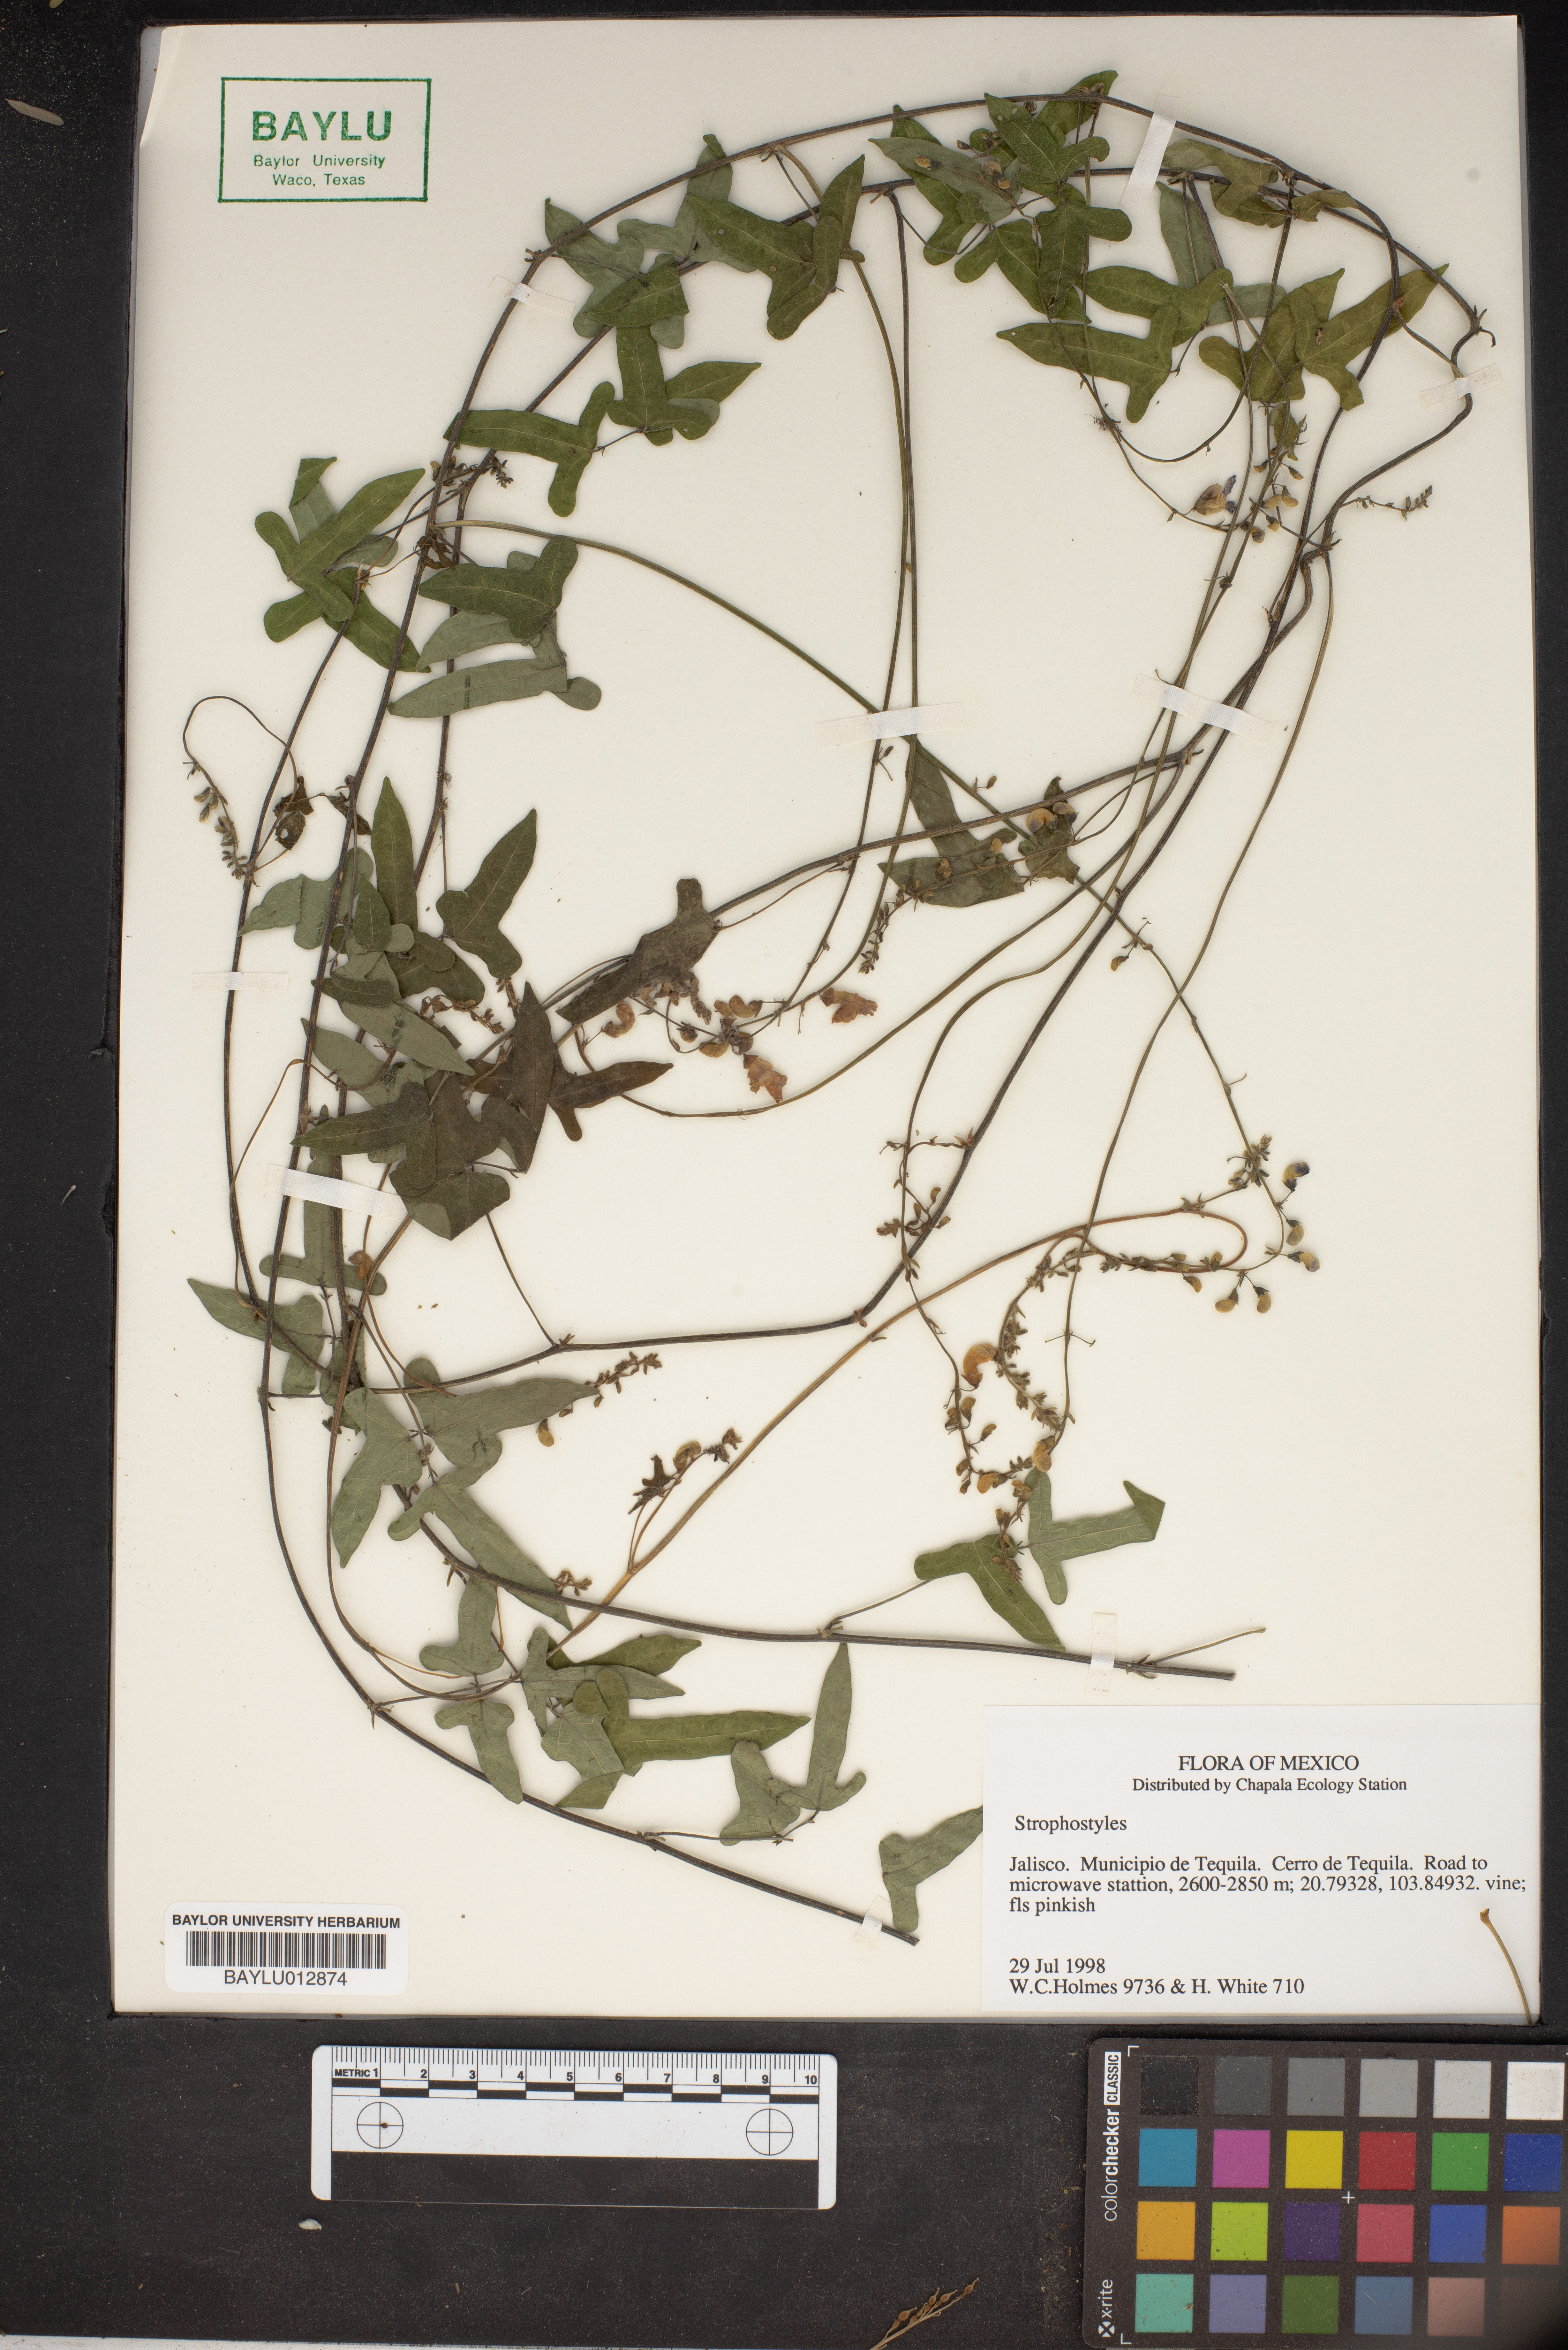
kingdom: Plantae
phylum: Tracheophyta
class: Magnoliopsida
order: Fabales
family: Fabaceae
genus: Strophostyles
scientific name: Strophostyles
